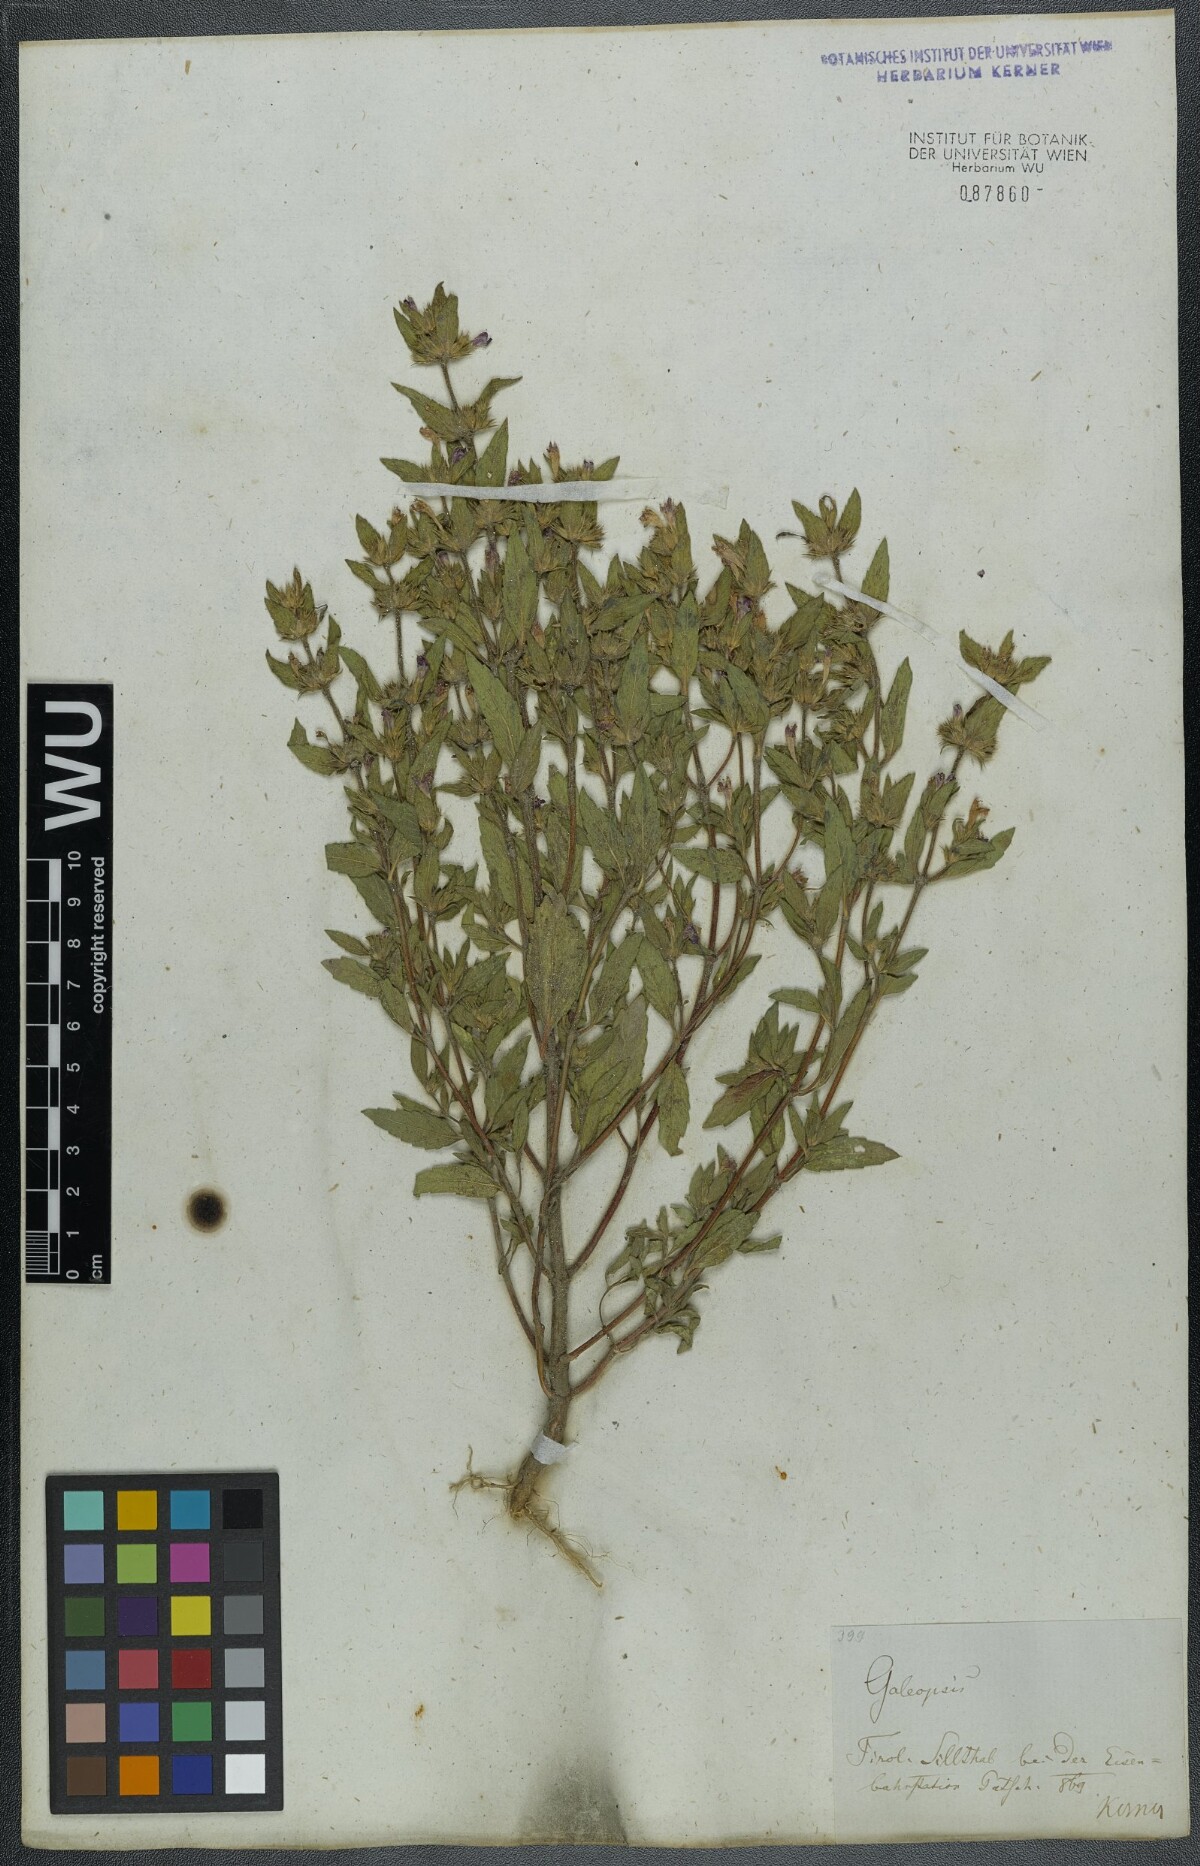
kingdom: Plantae
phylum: Tracheophyta
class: Magnoliopsida
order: Lamiales
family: Lamiaceae
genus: Galeopsis
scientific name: Galeopsis ladanum
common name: Broad-leaved hemp-nettle
